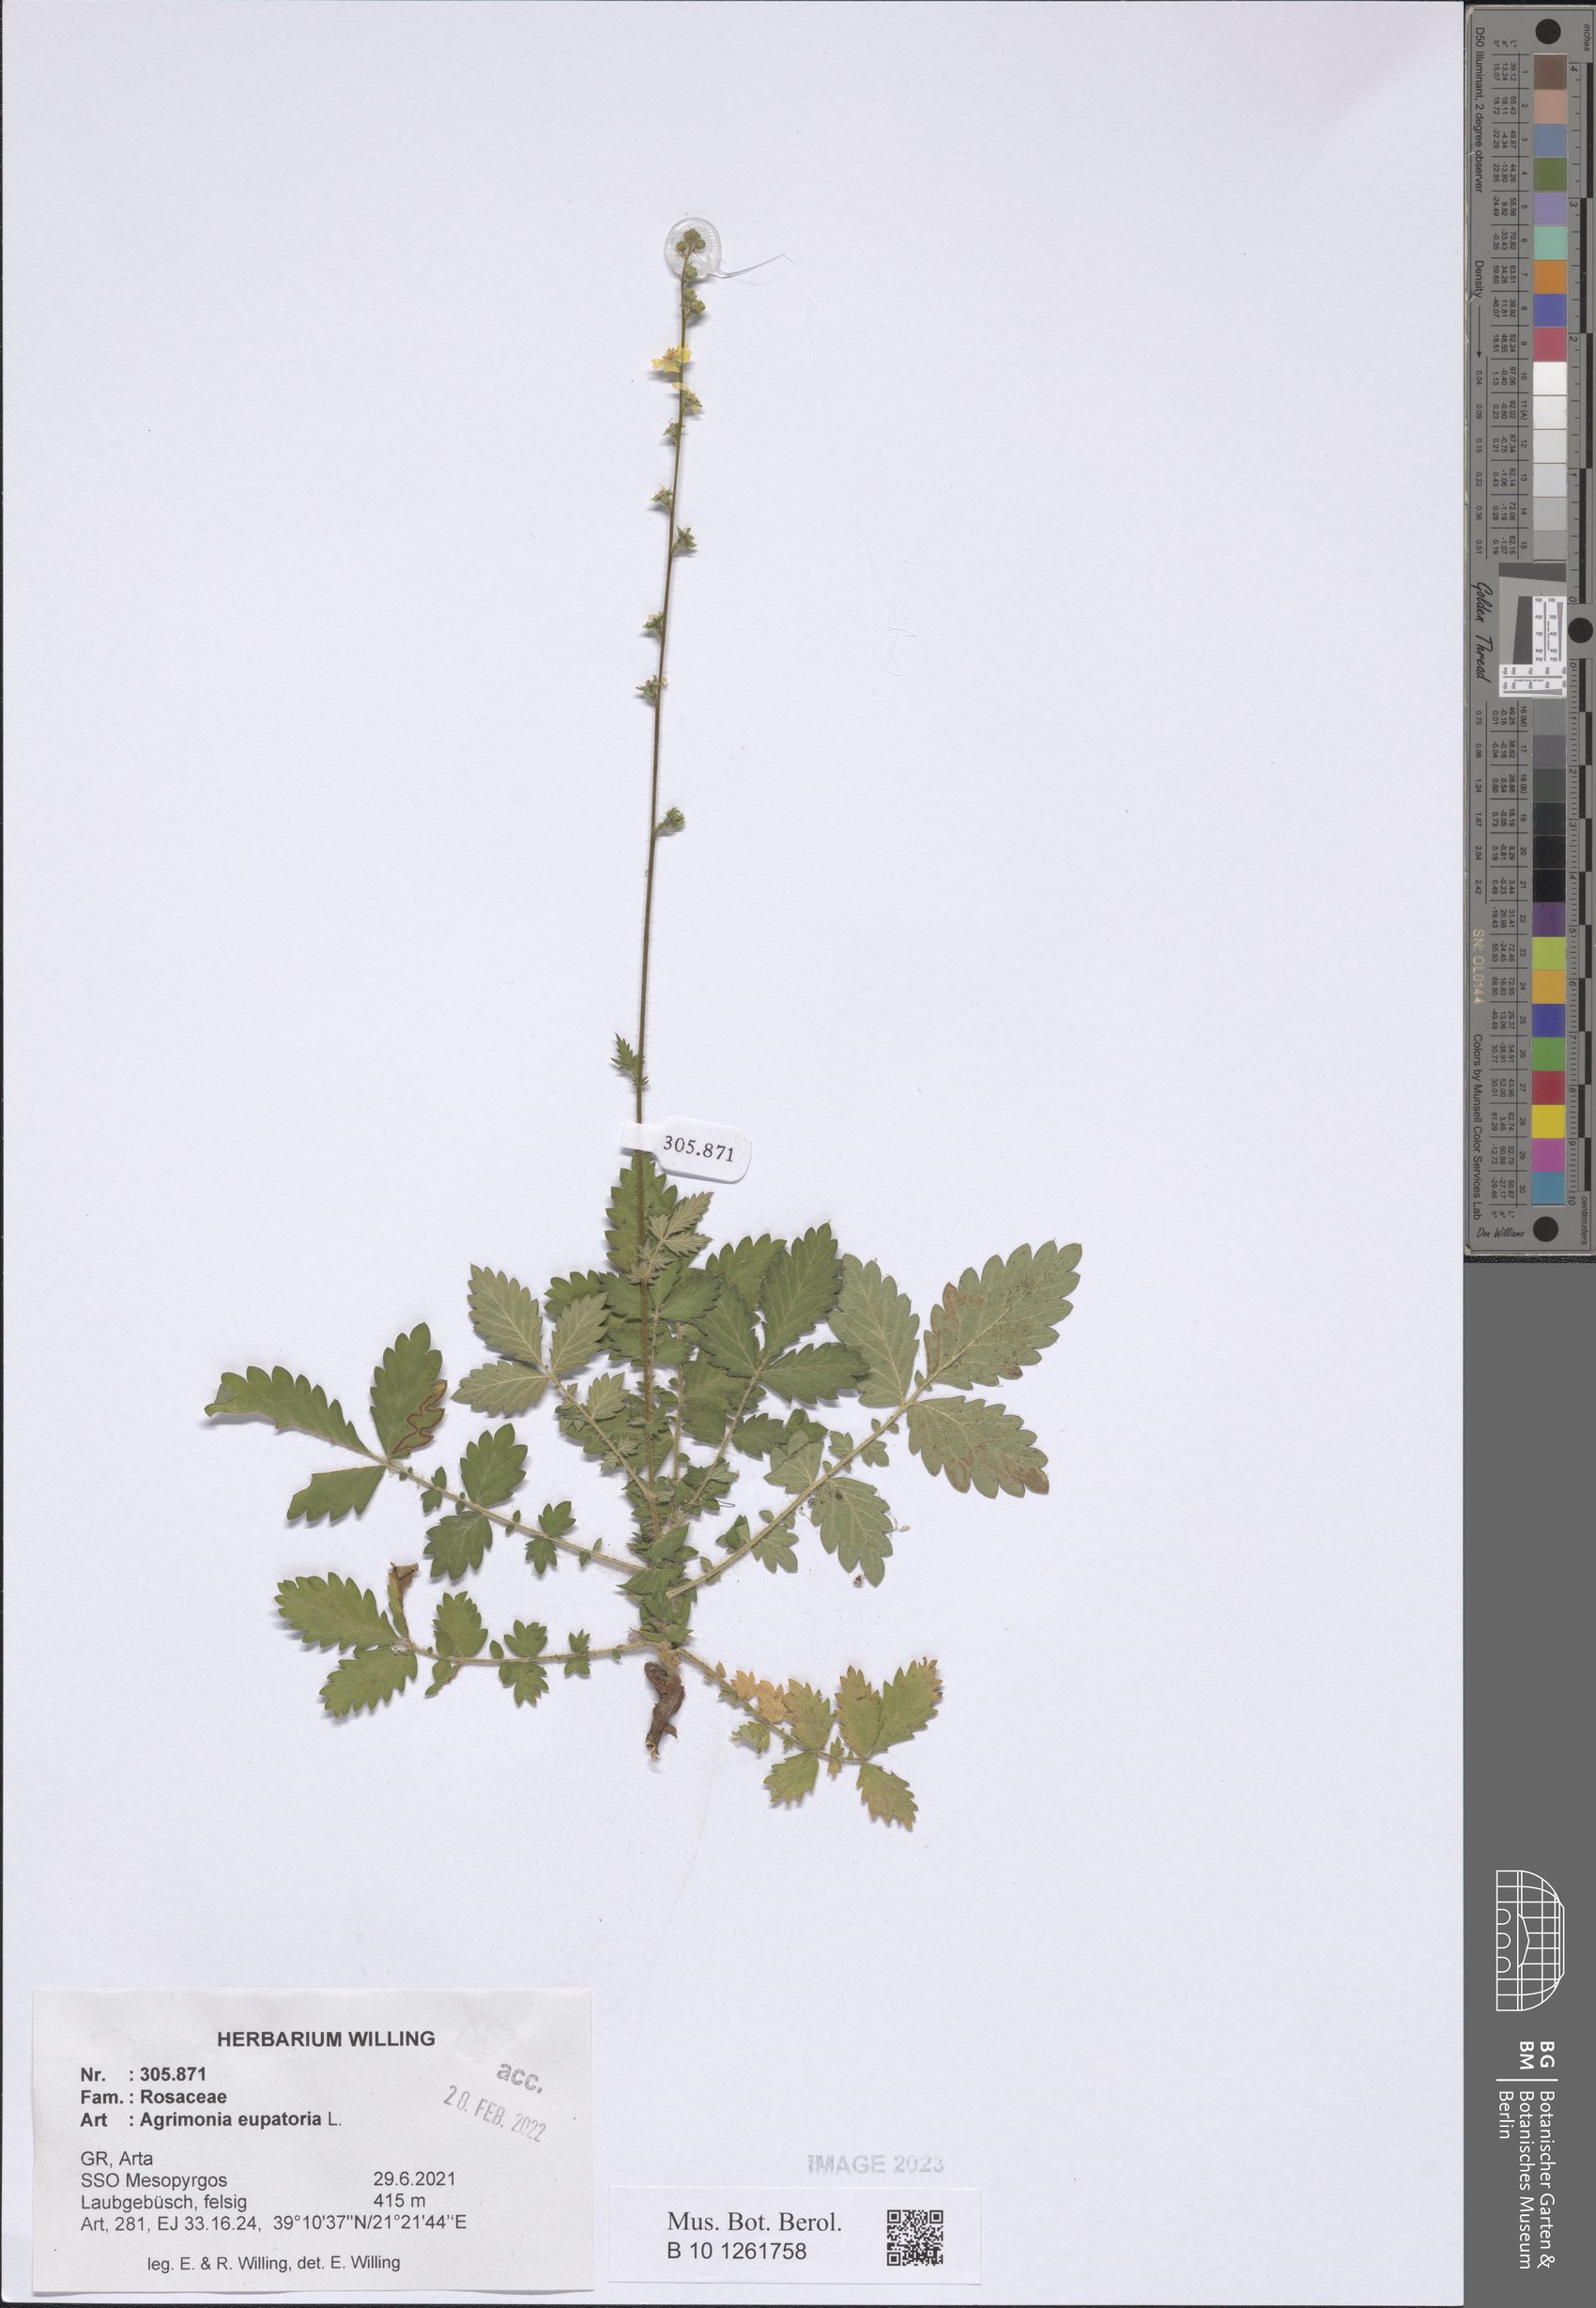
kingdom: Plantae
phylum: Tracheophyta
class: Magnoliopsida
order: Rosales
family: Rosaceae
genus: Agrimonia
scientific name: Agrimonia eupatoria
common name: Agrimony
